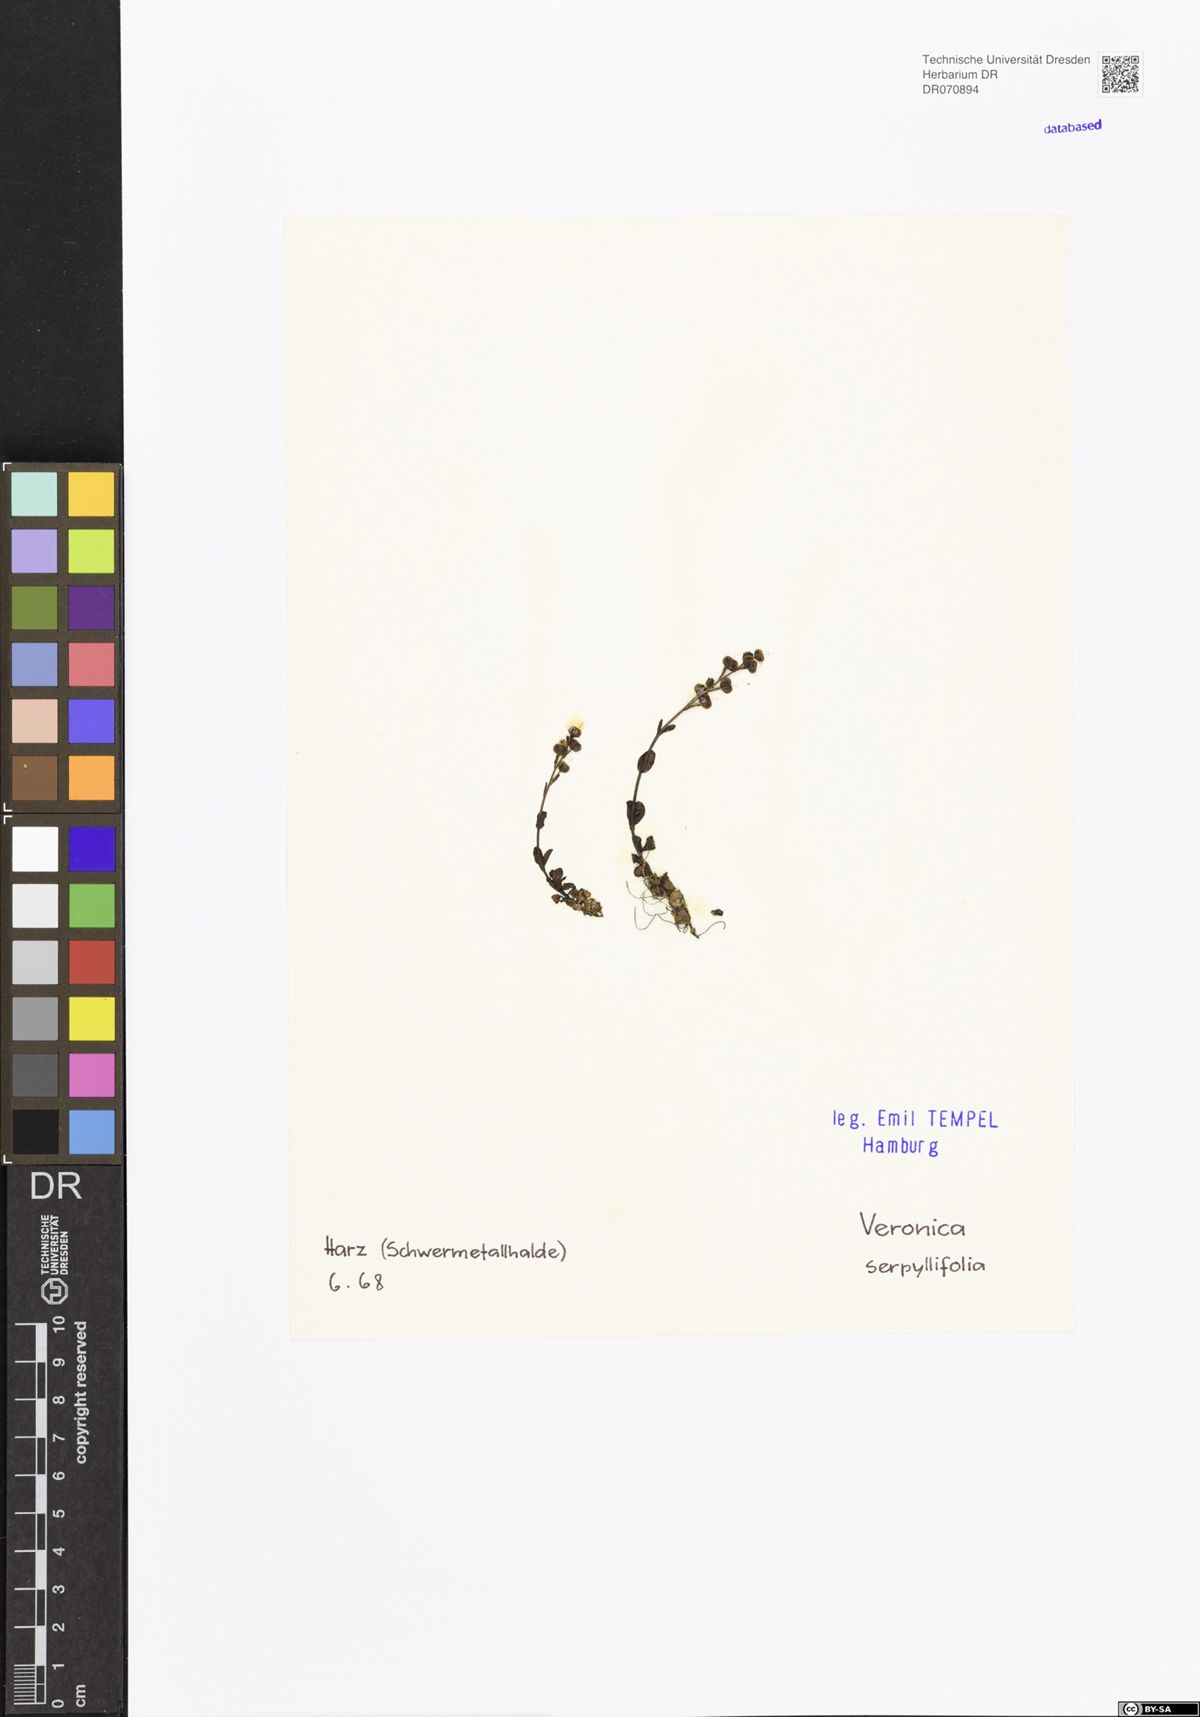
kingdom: Plantae
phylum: Tracheophyta
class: Magnoliopsida
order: Lamiales
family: Plantaginaceae
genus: Veronica
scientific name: Veronica serpyllifolia
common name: Thyme-leaved speedwell
